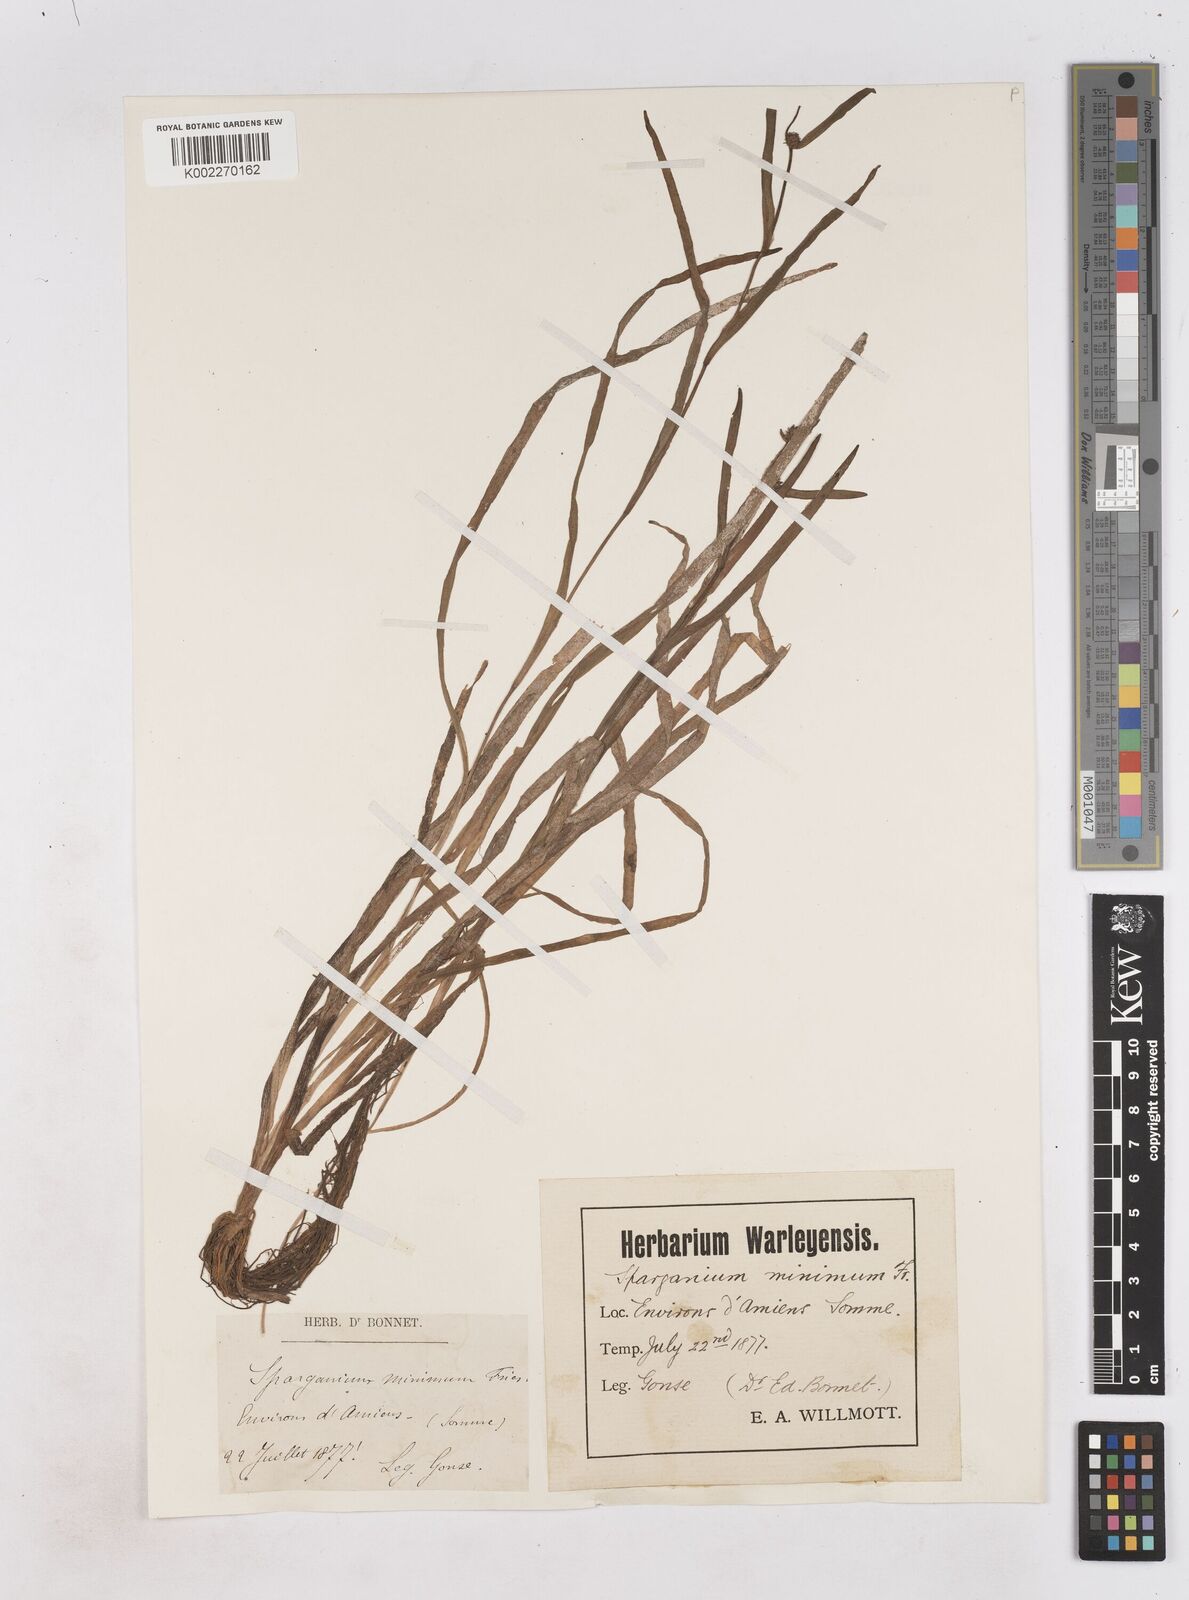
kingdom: Plantae
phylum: Tracheophyta
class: Liliopsida
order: Poales
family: Typhaceae
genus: Sparganium
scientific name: Sparganium natans
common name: Least bur-reed
